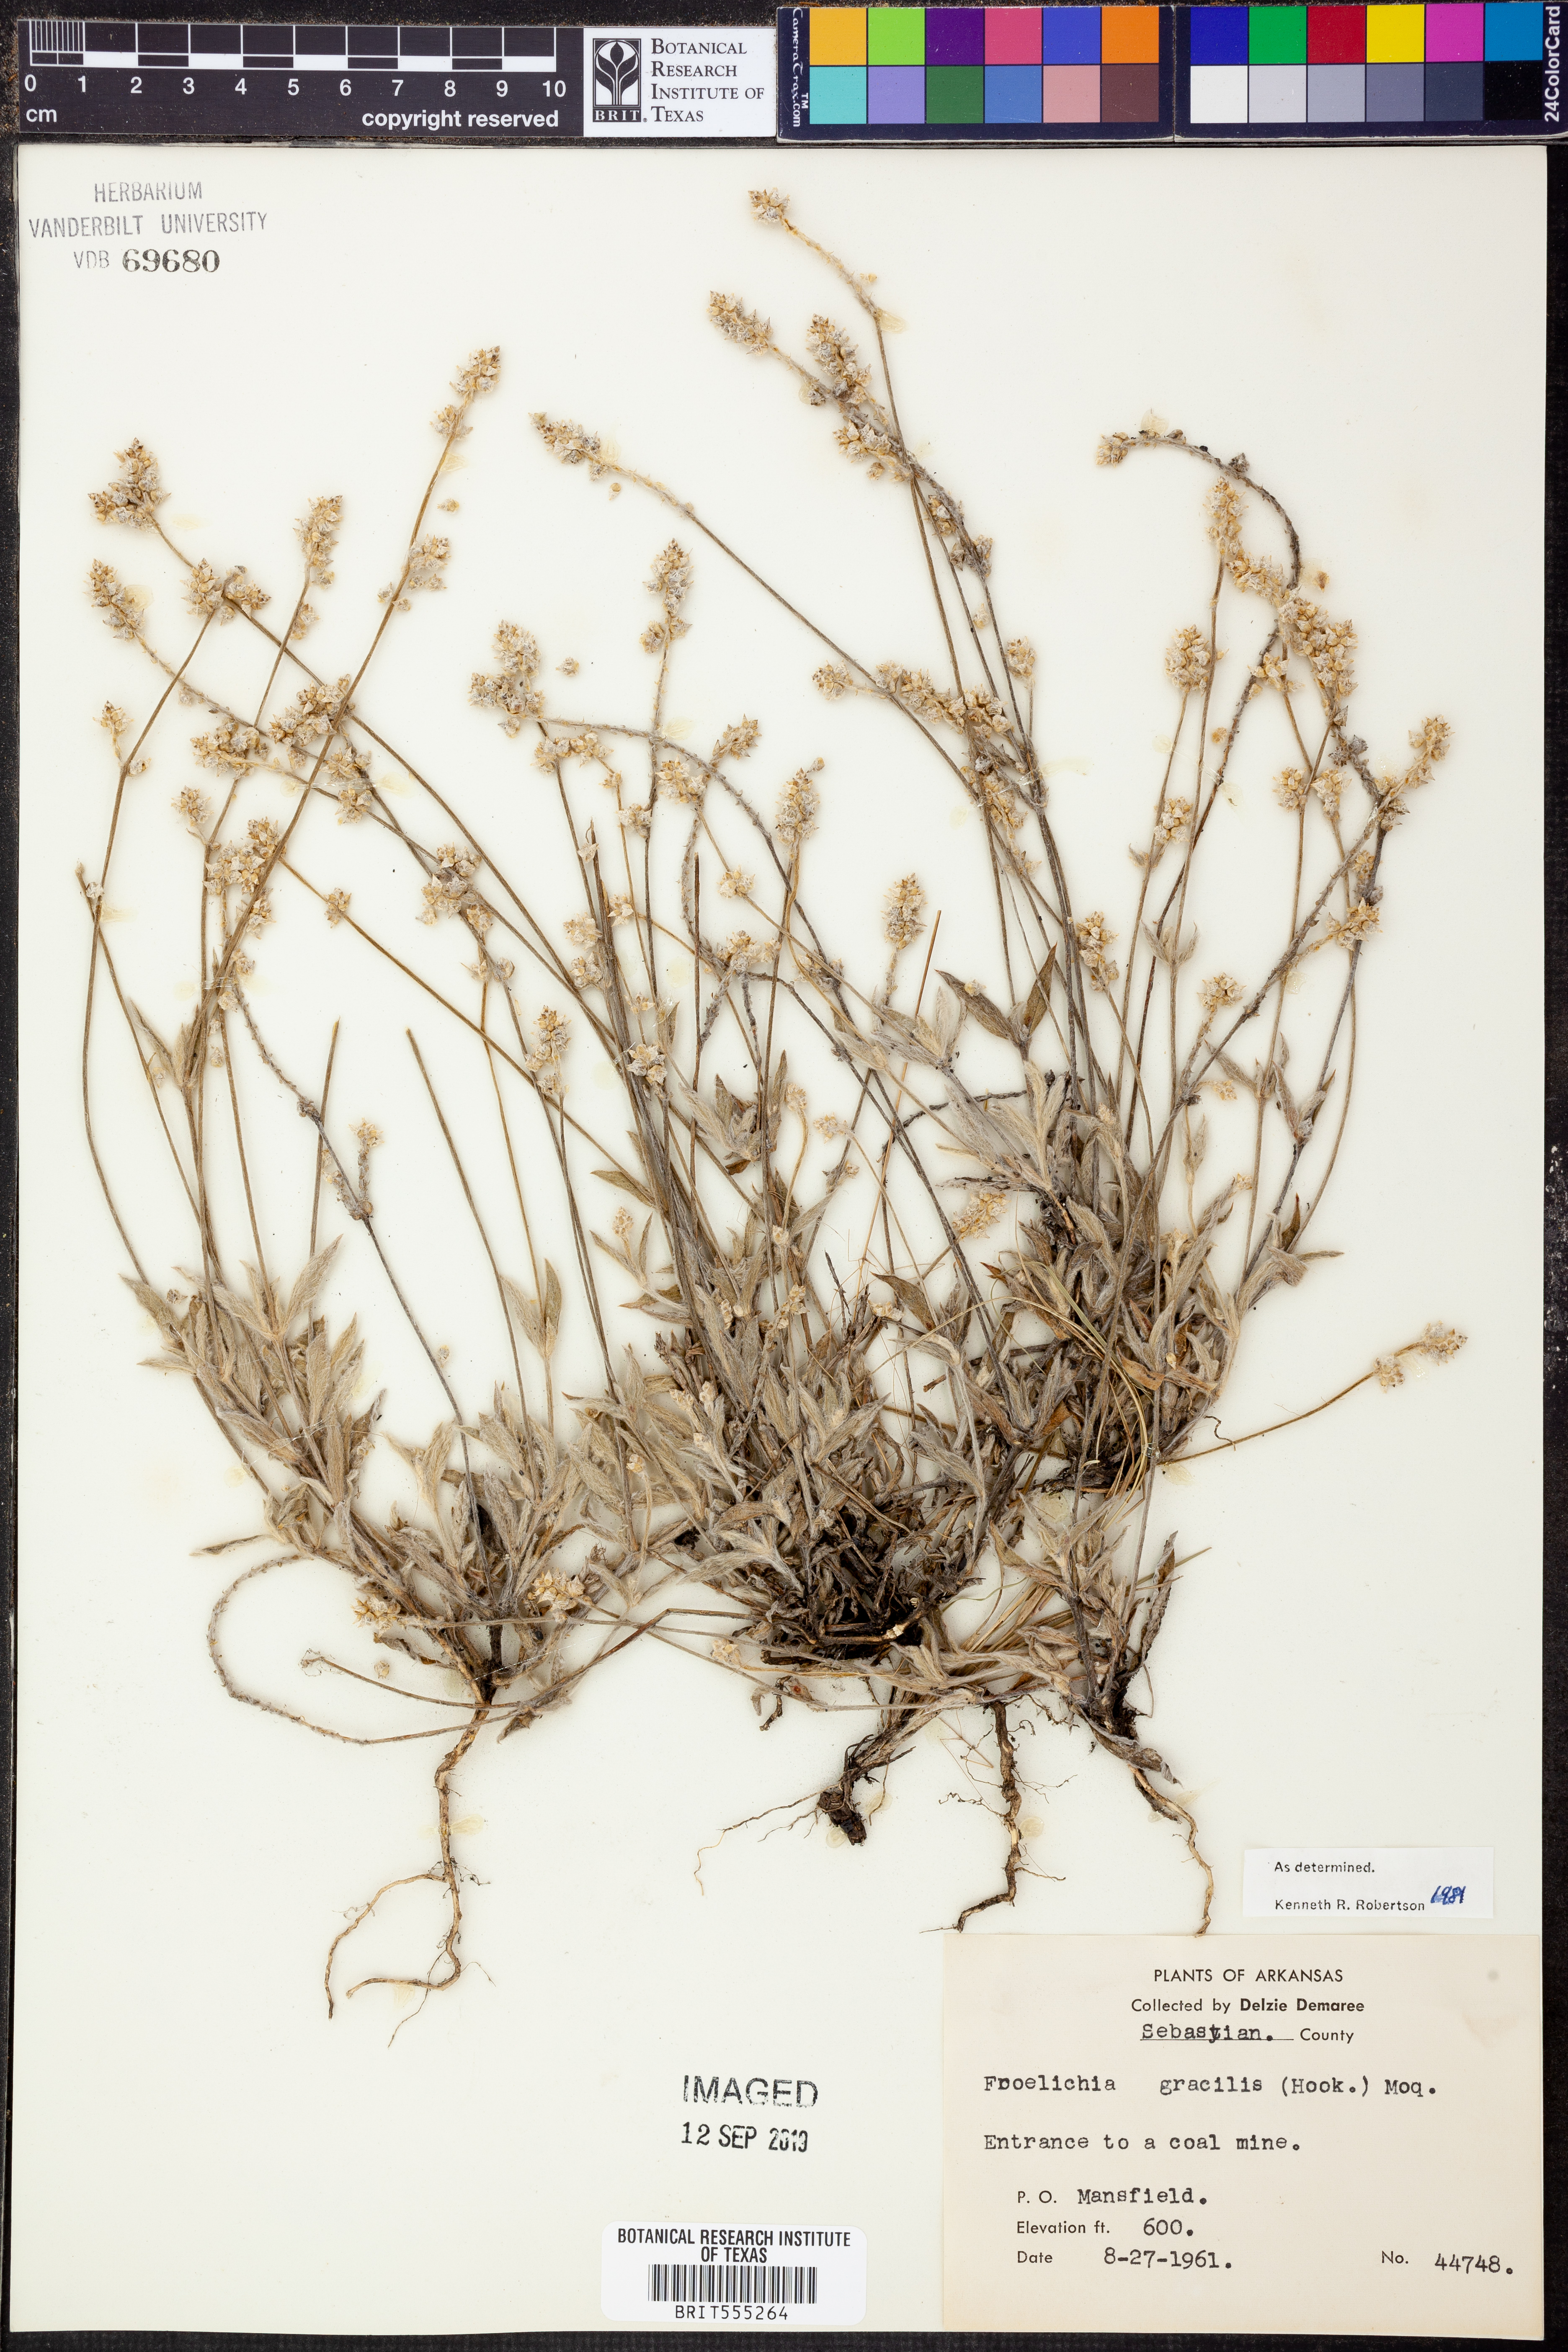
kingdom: Plantae
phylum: Tracheophyta
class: Magnoliopsida
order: Caryophyllales
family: Amaranthaceae
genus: Froelichia
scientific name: Froelichia gracilis
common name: Slender cottonweed
